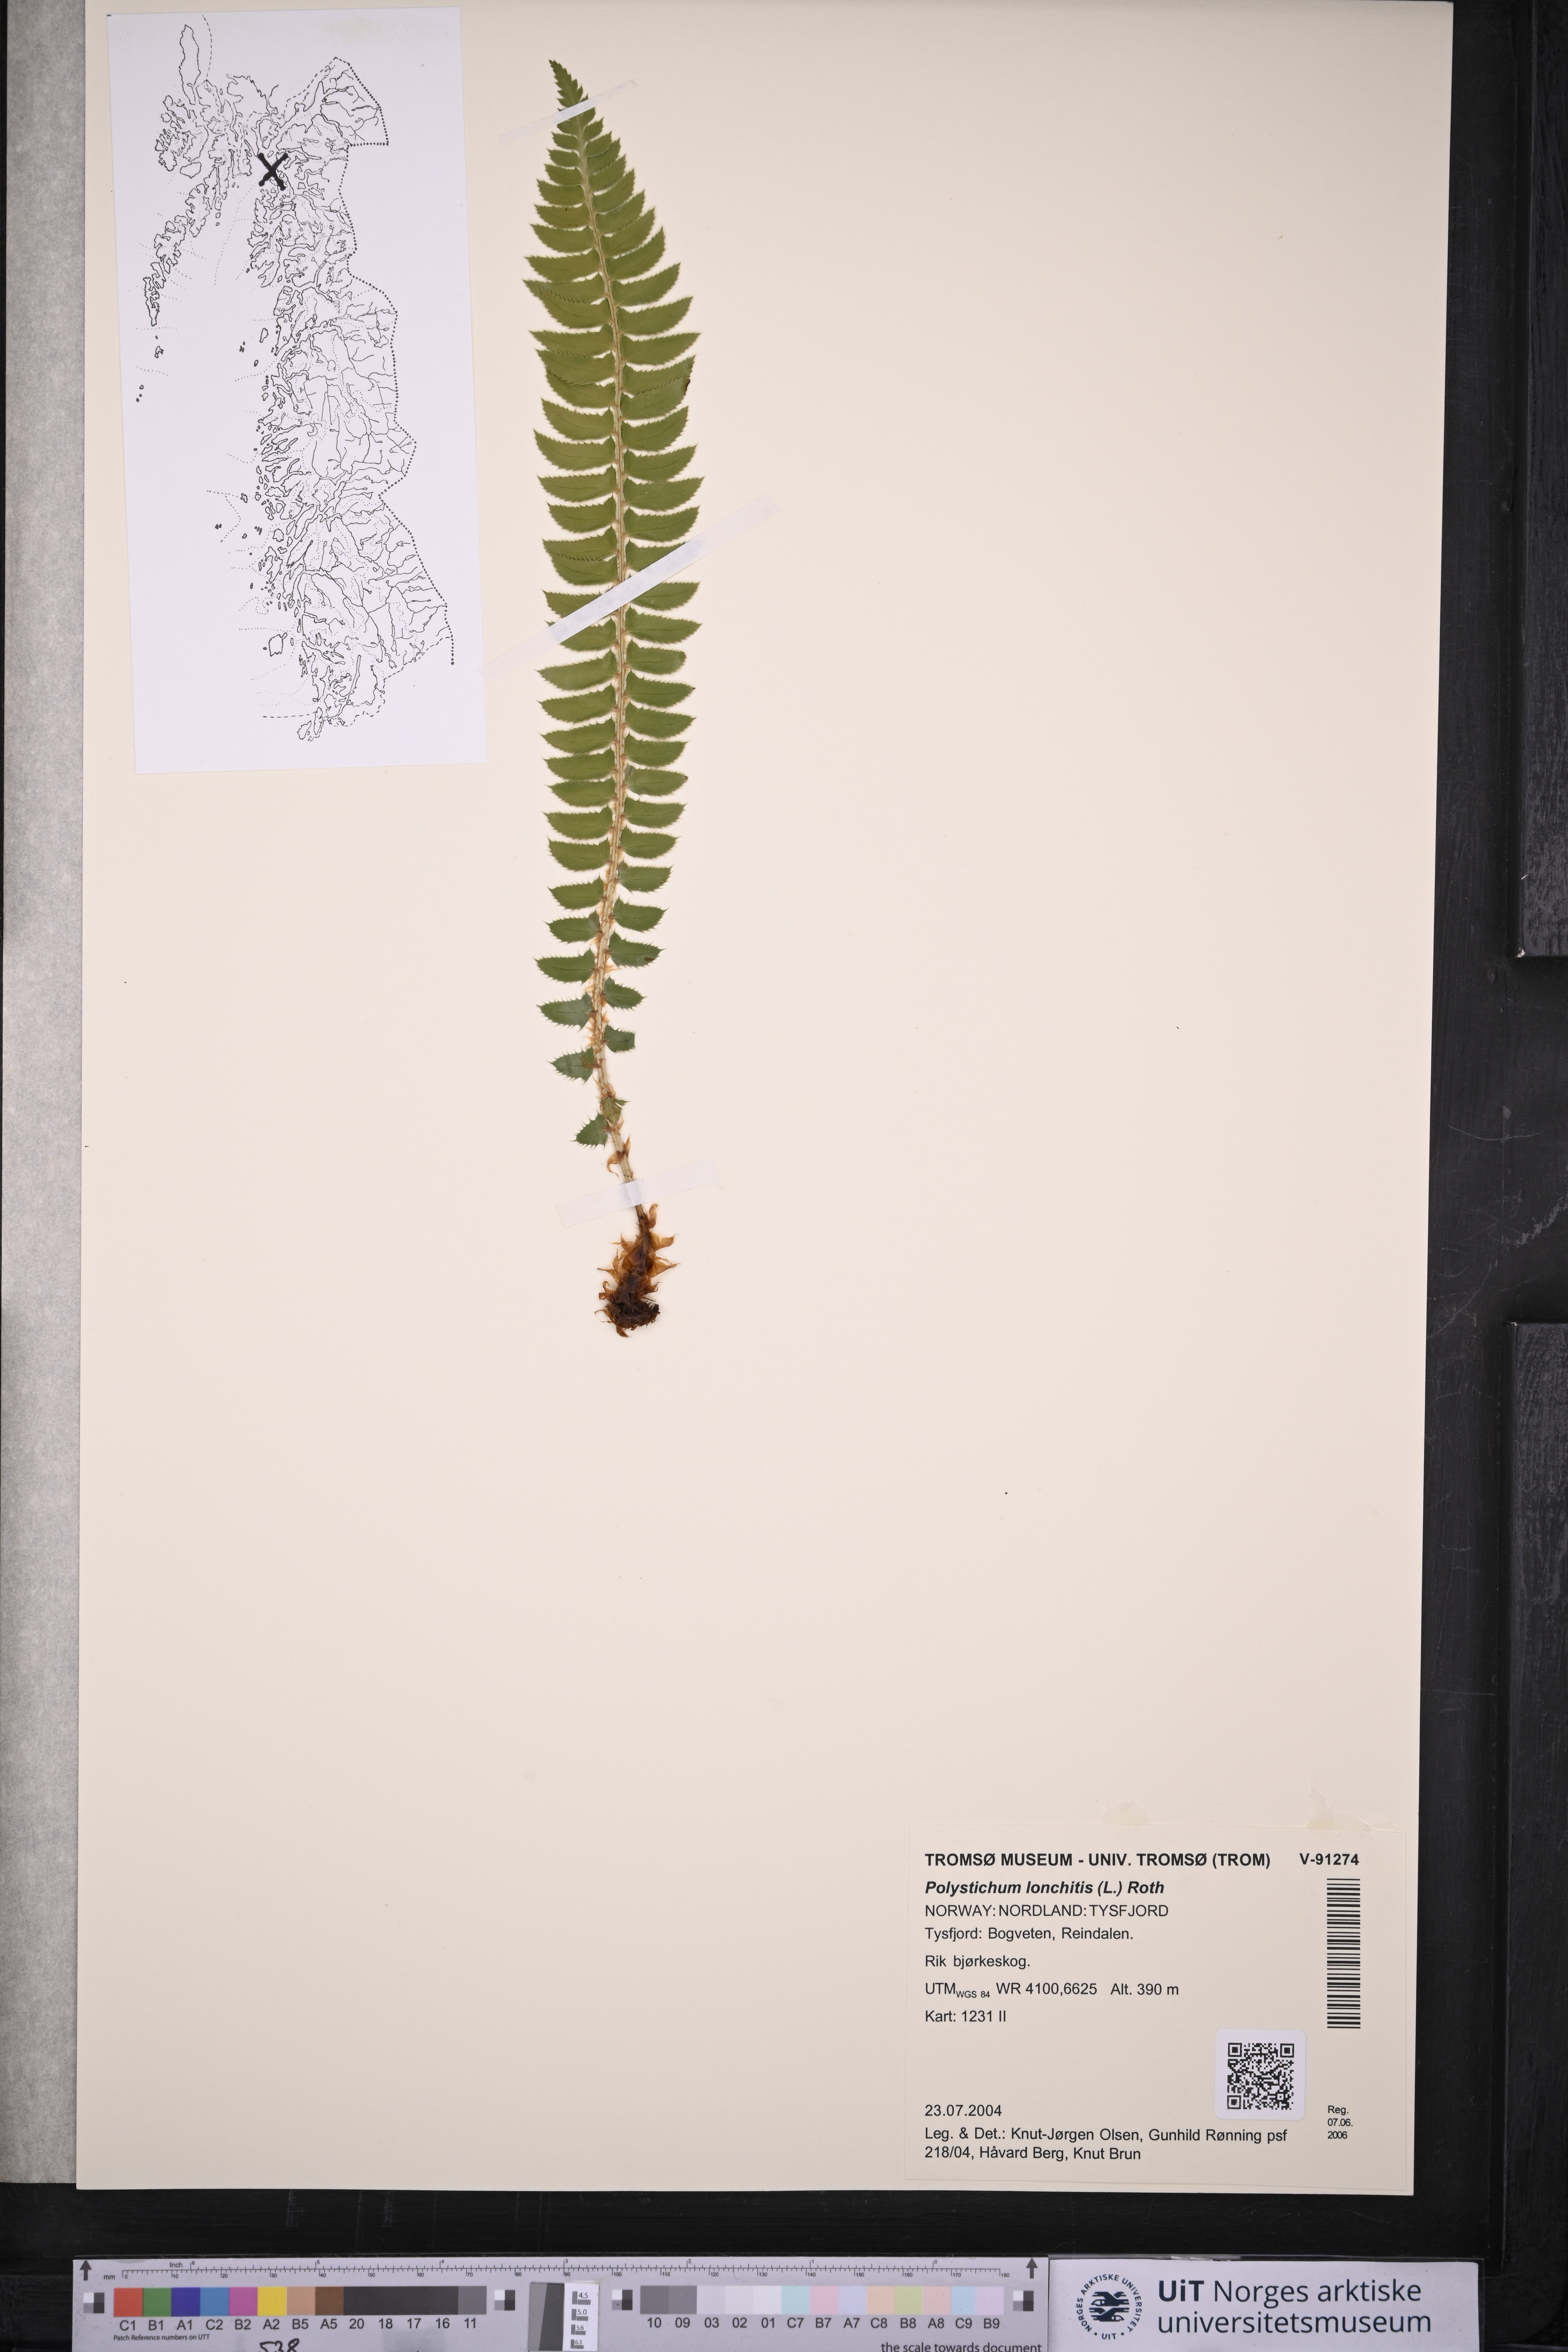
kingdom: Plantae
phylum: Tracheophyta
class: Polypodiopsida
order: Polypodiales
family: Dryopteridaceae
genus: Polystichum
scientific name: Polystichum lonchitis
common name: Holly fern
